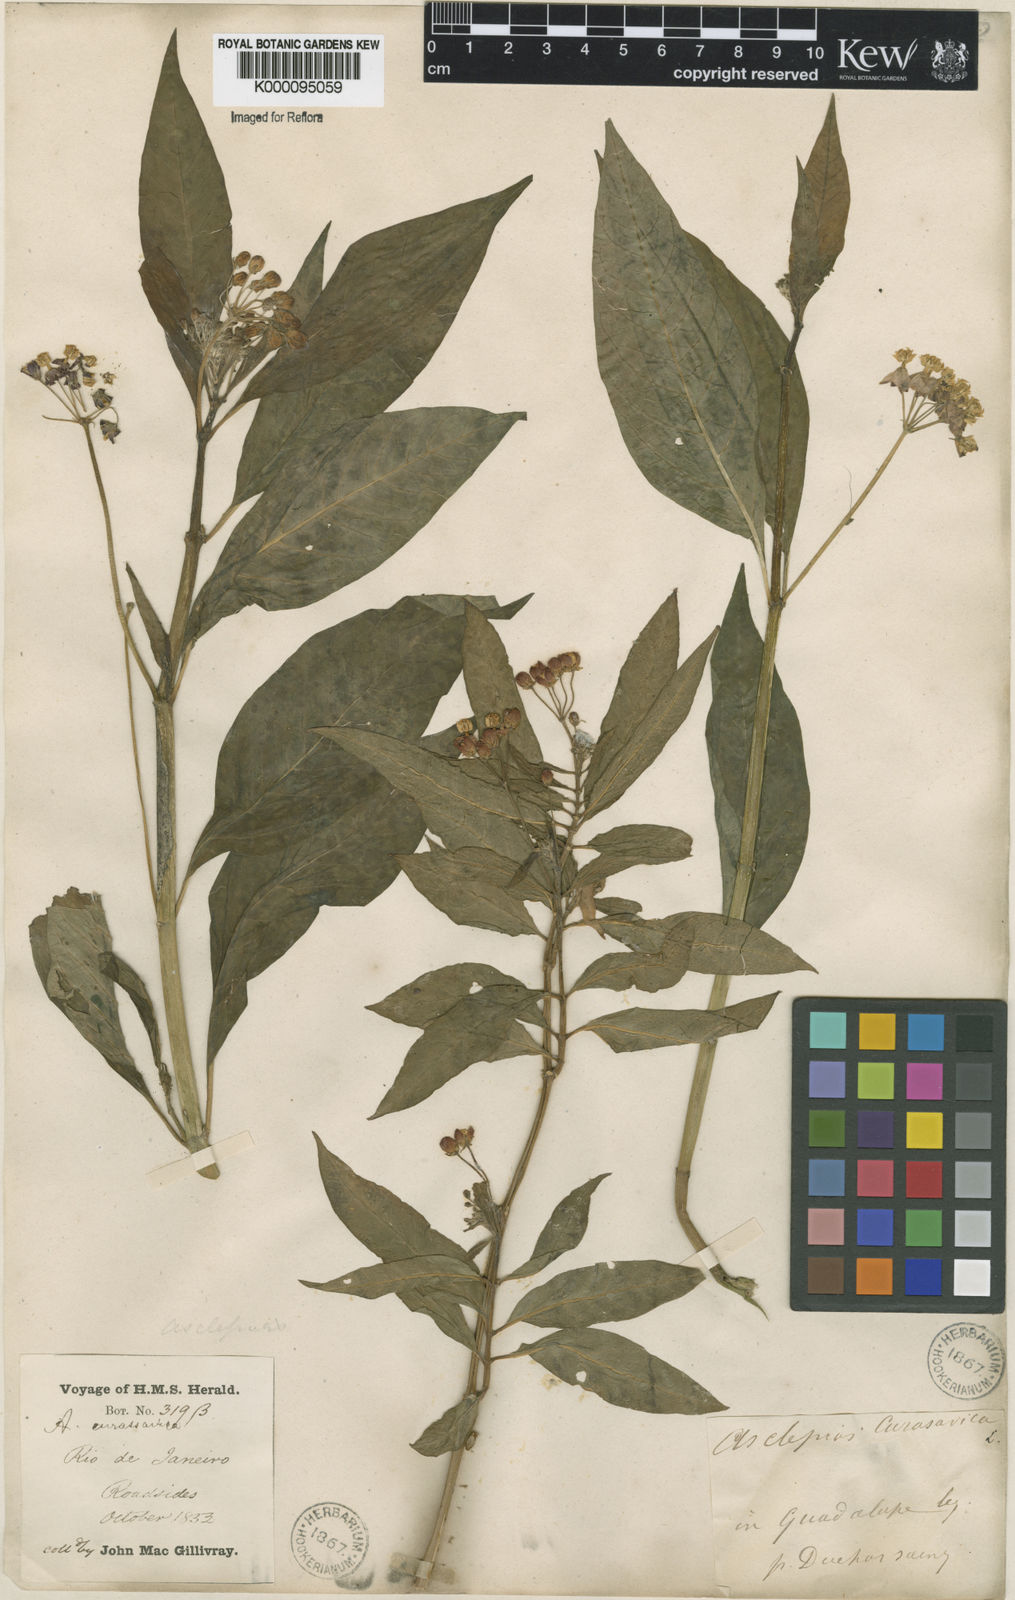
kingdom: Plantae
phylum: Tracheophyta
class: Magnoliopsida
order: Gentianales
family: Apocynaceae
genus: Asclepias
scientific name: Asclepias curassavica
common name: Bloodflower
